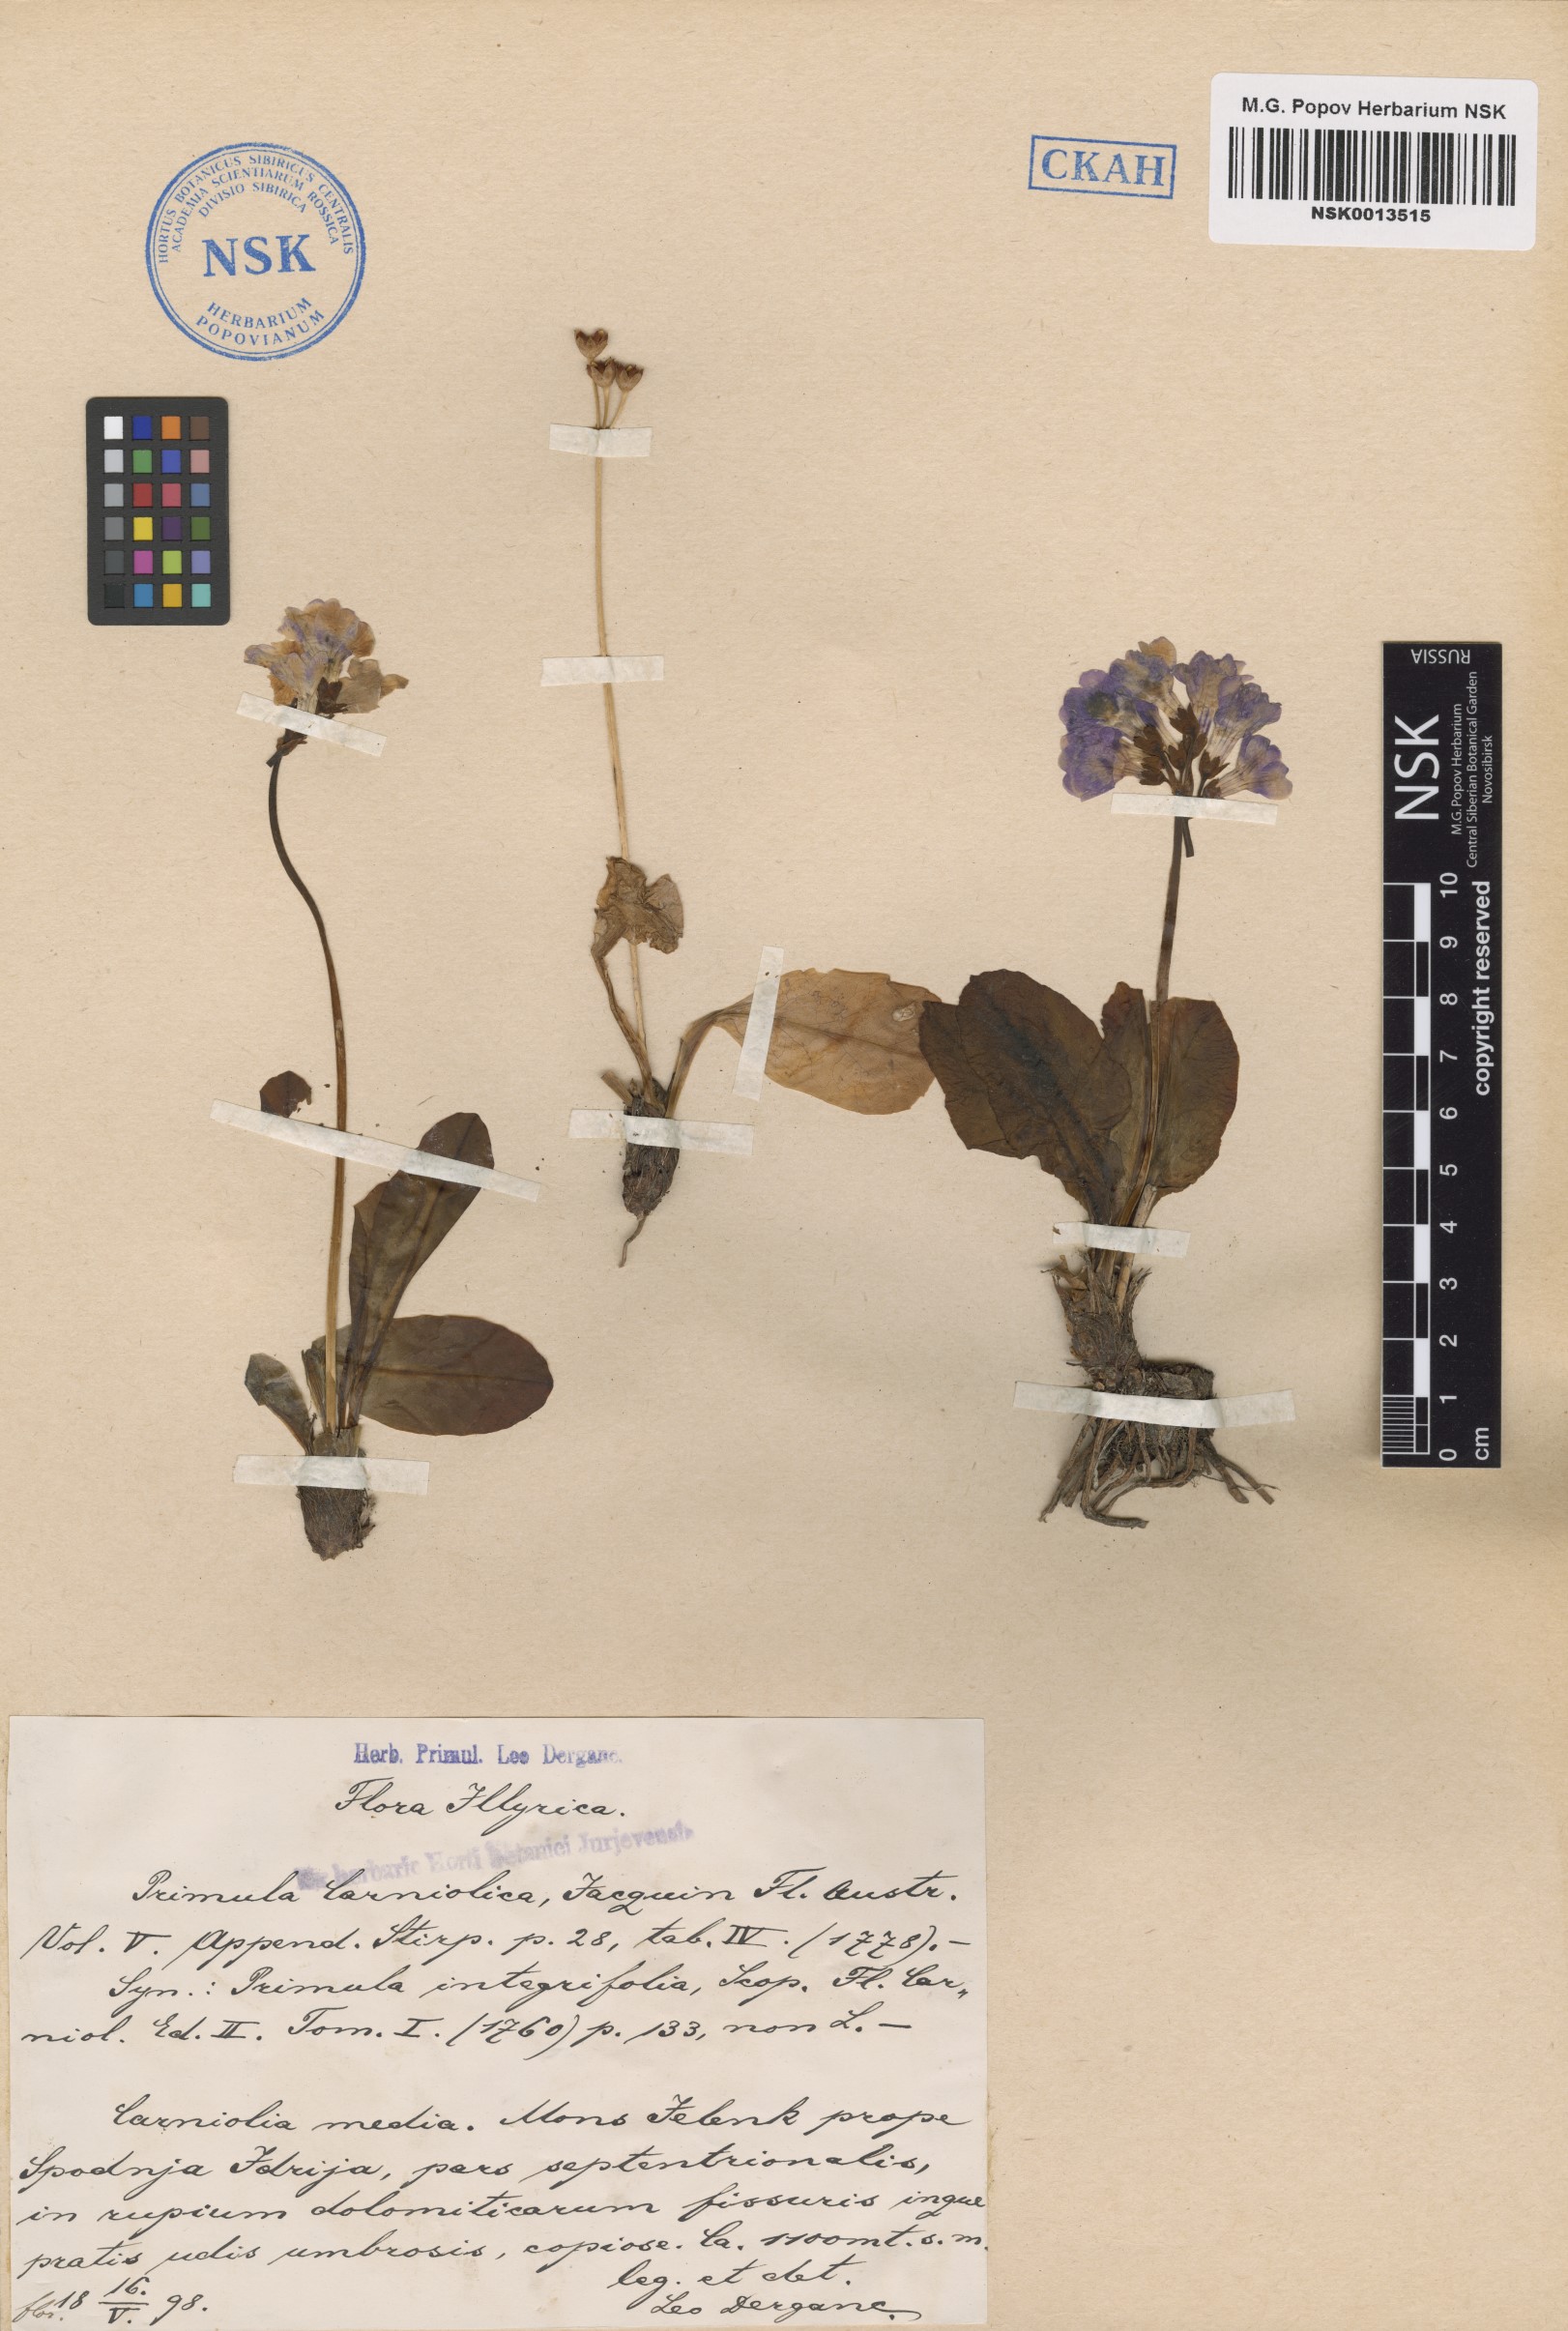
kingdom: Plantae
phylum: Tracheophyta
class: Magnoliopsida
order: Ericales
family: Primulaceae
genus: Primula
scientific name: Primula carniolica
